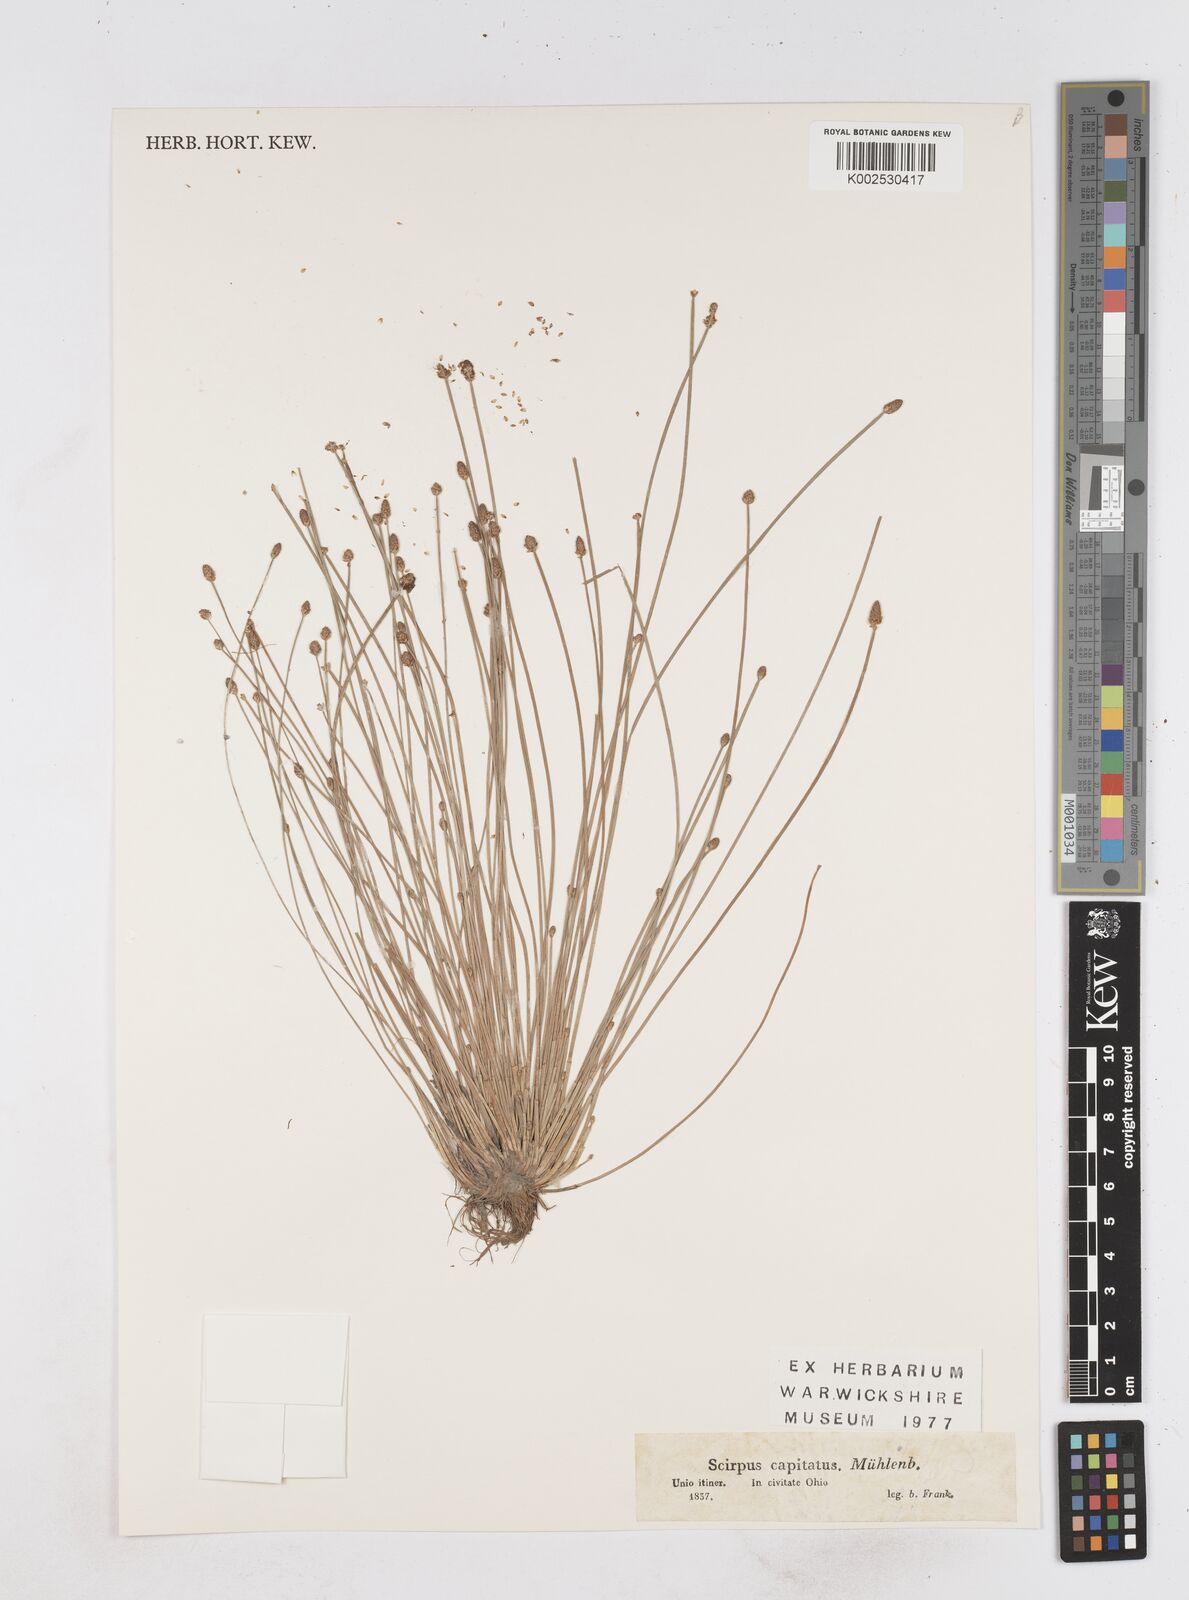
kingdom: Plantae
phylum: Tracheophyta
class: Liliopsida
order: Poales
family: Cyperaceae
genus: Eleocharis
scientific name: Eleocharis albida
